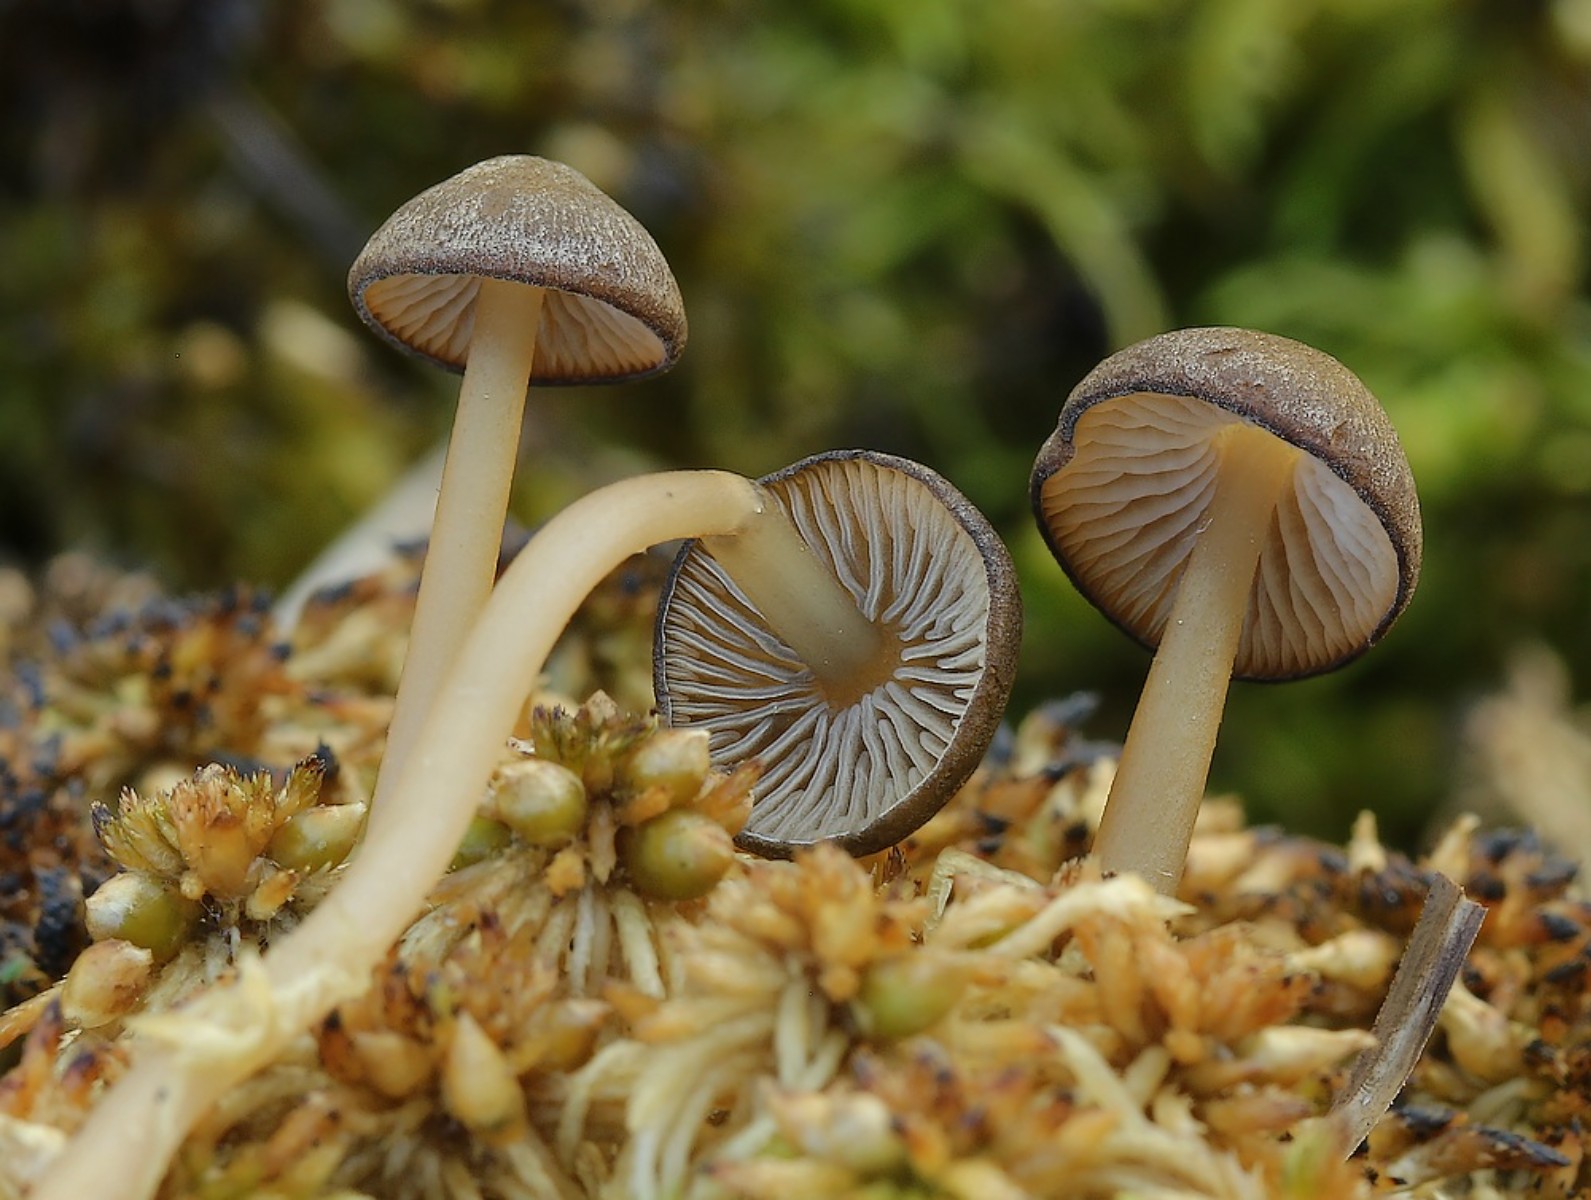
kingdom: Fungi
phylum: Basidiomycota
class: Agaricomycetes
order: Agaricales
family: Lyophyllaceae
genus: Sphagnurus
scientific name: Sphagnurus paluster
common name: tørvemos-gråblad
